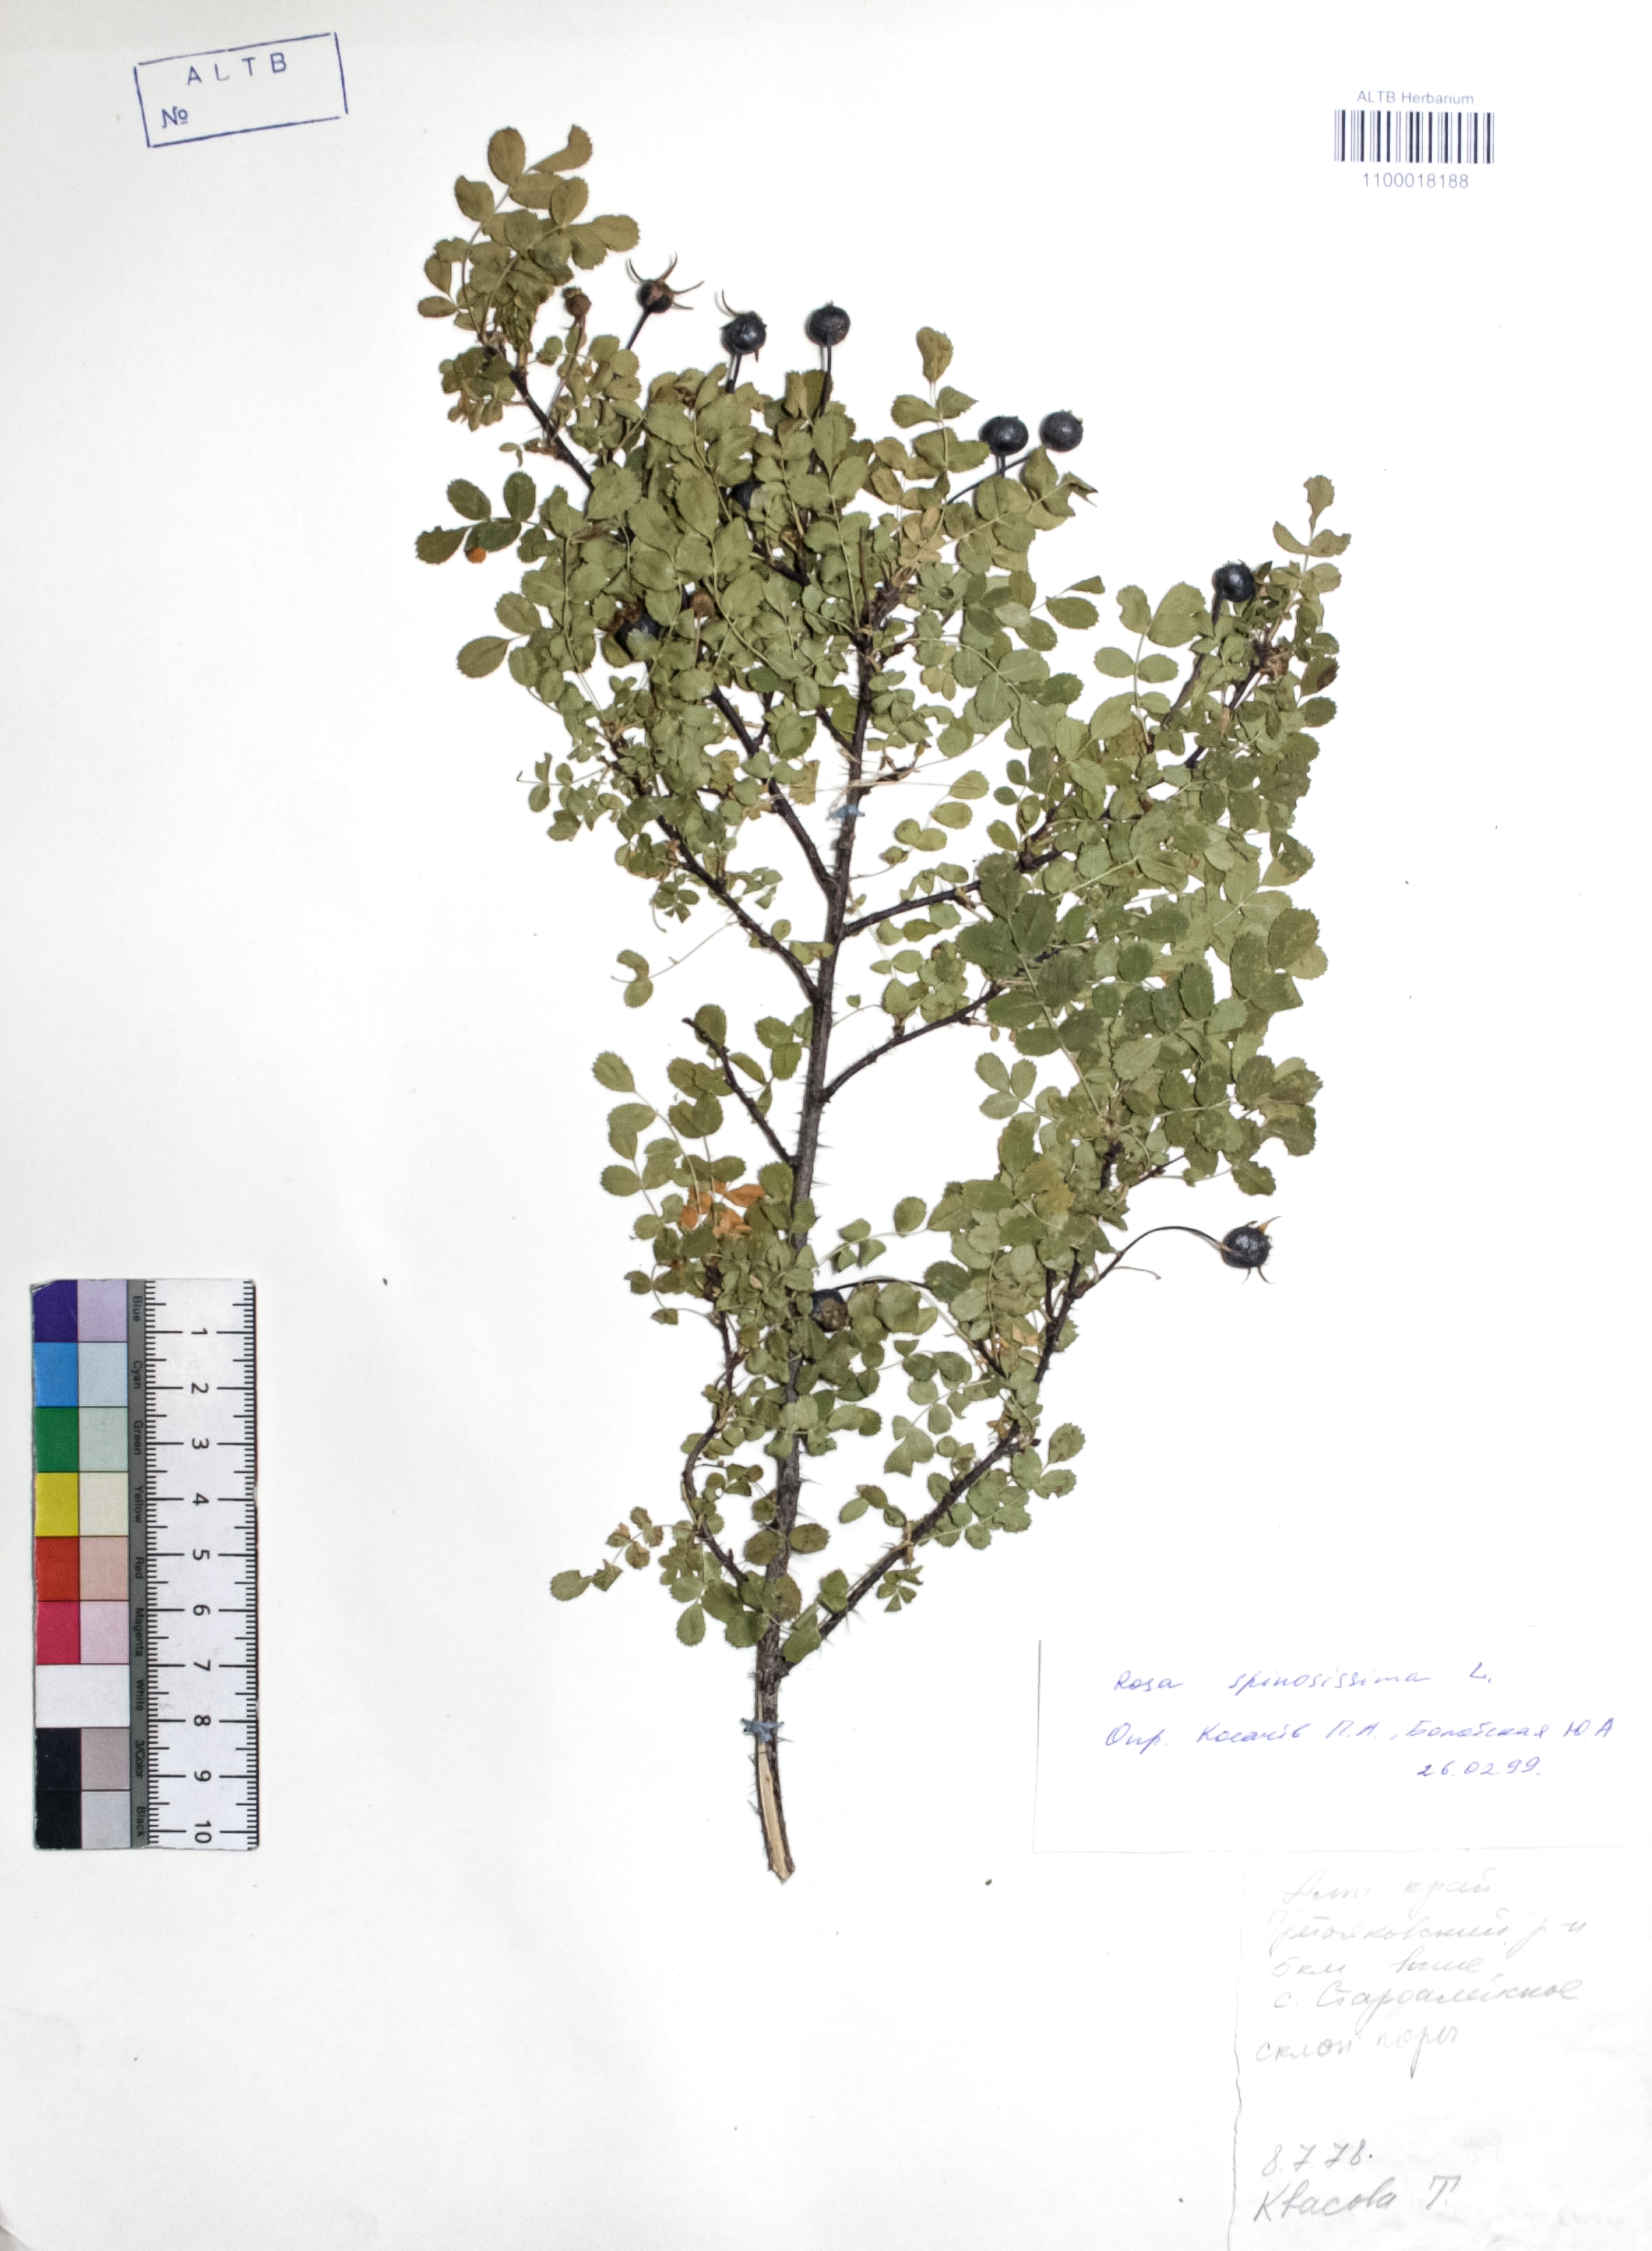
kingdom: Plantae
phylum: Tracheophyta
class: Magnoliopsida
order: Rosales
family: Rosaceae
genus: Rosa
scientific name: Rosa spinosissima
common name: Burnet rose
